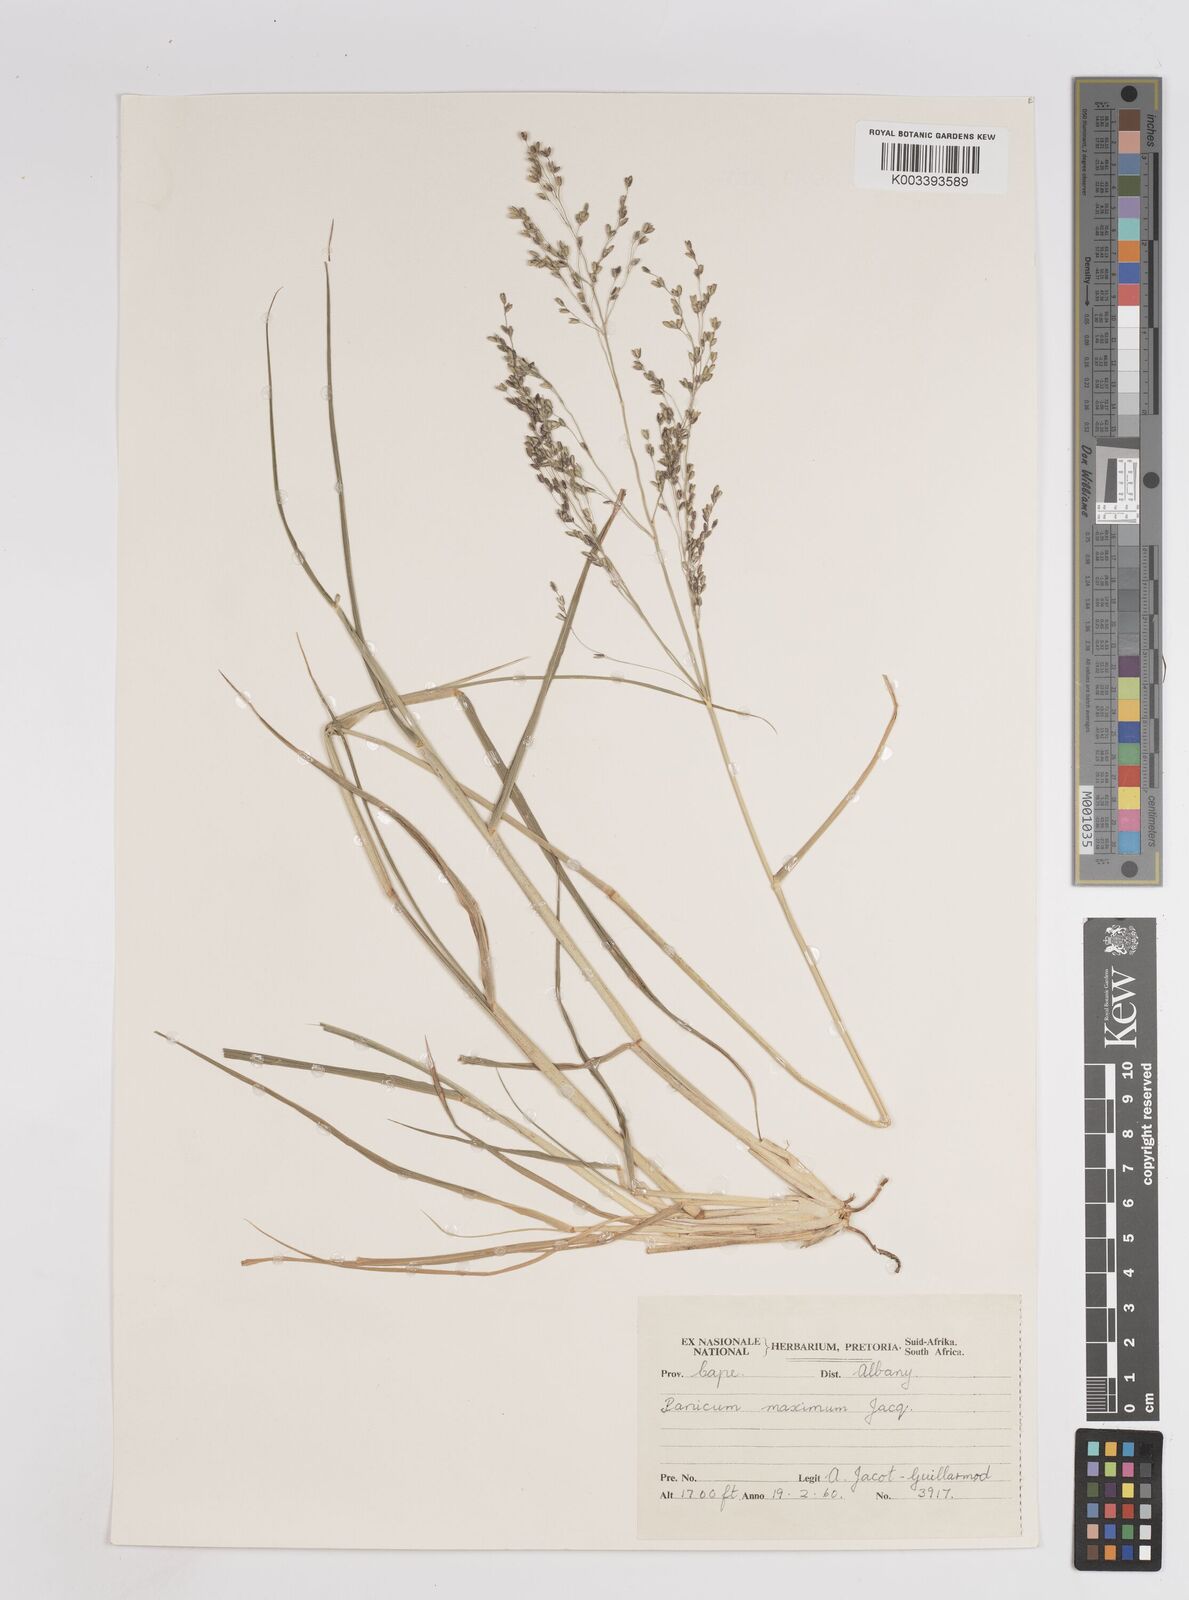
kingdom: Plantae
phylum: Tracheophyta
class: Liliopsida
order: Poales
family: Poaceae
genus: Megathyrsus
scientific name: Megathyrsus maximus
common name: Guineagrass
